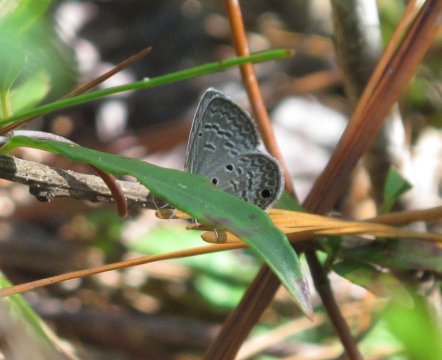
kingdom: Animalia
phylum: Arthropoda
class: Insecta
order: Lepidoptera
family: Lycaenidae
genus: Hemiargus
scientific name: Hemiargus ceraunus
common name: Ceraunus Blue
